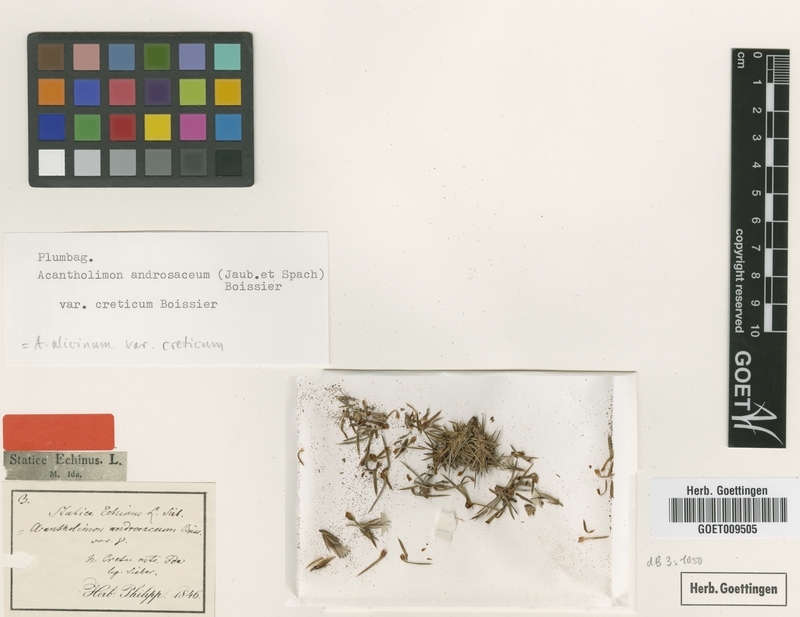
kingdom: Plantae
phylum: Tracheophyta
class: Magnoliopsida
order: Caryophyllales
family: Plumbaginaceae
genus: Acantholimon
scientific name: Acantholimon creticum
